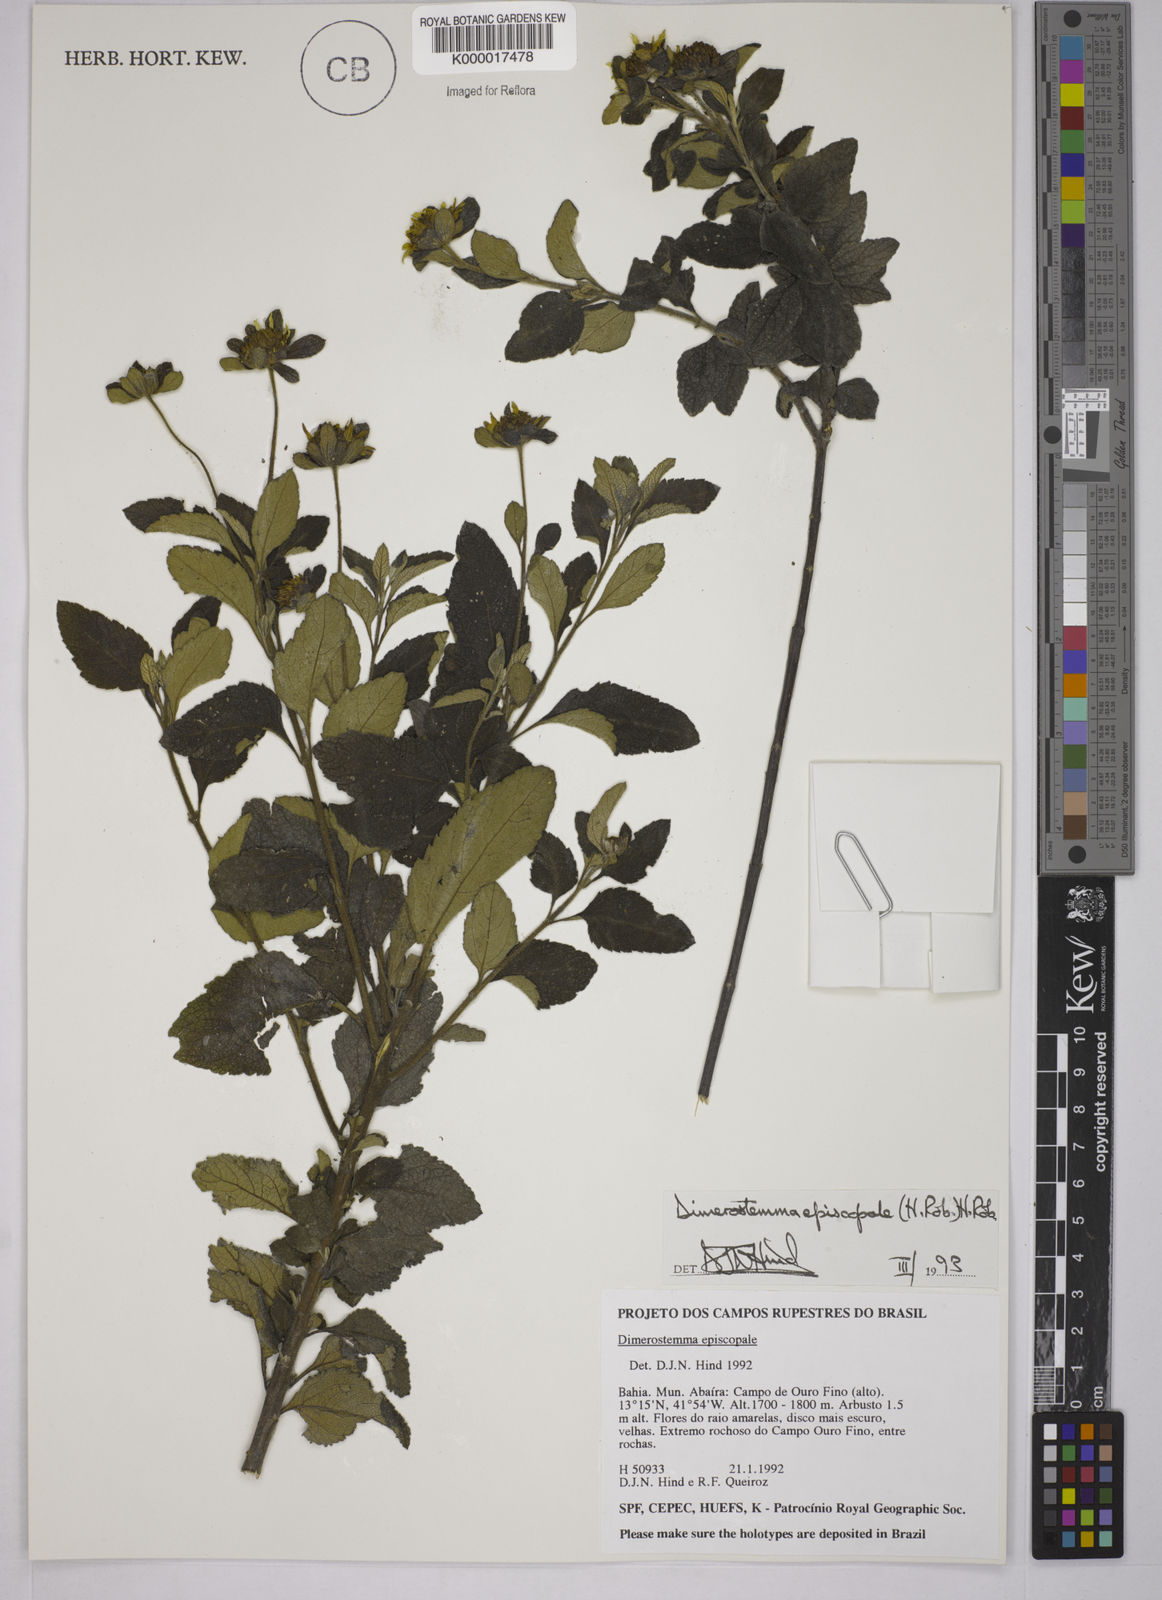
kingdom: Plantae
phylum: Tracheophyta
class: Magnoliopsida
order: Asterales
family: Asteraceae
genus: Dimerostemma
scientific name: Dimerostemma episcopale
